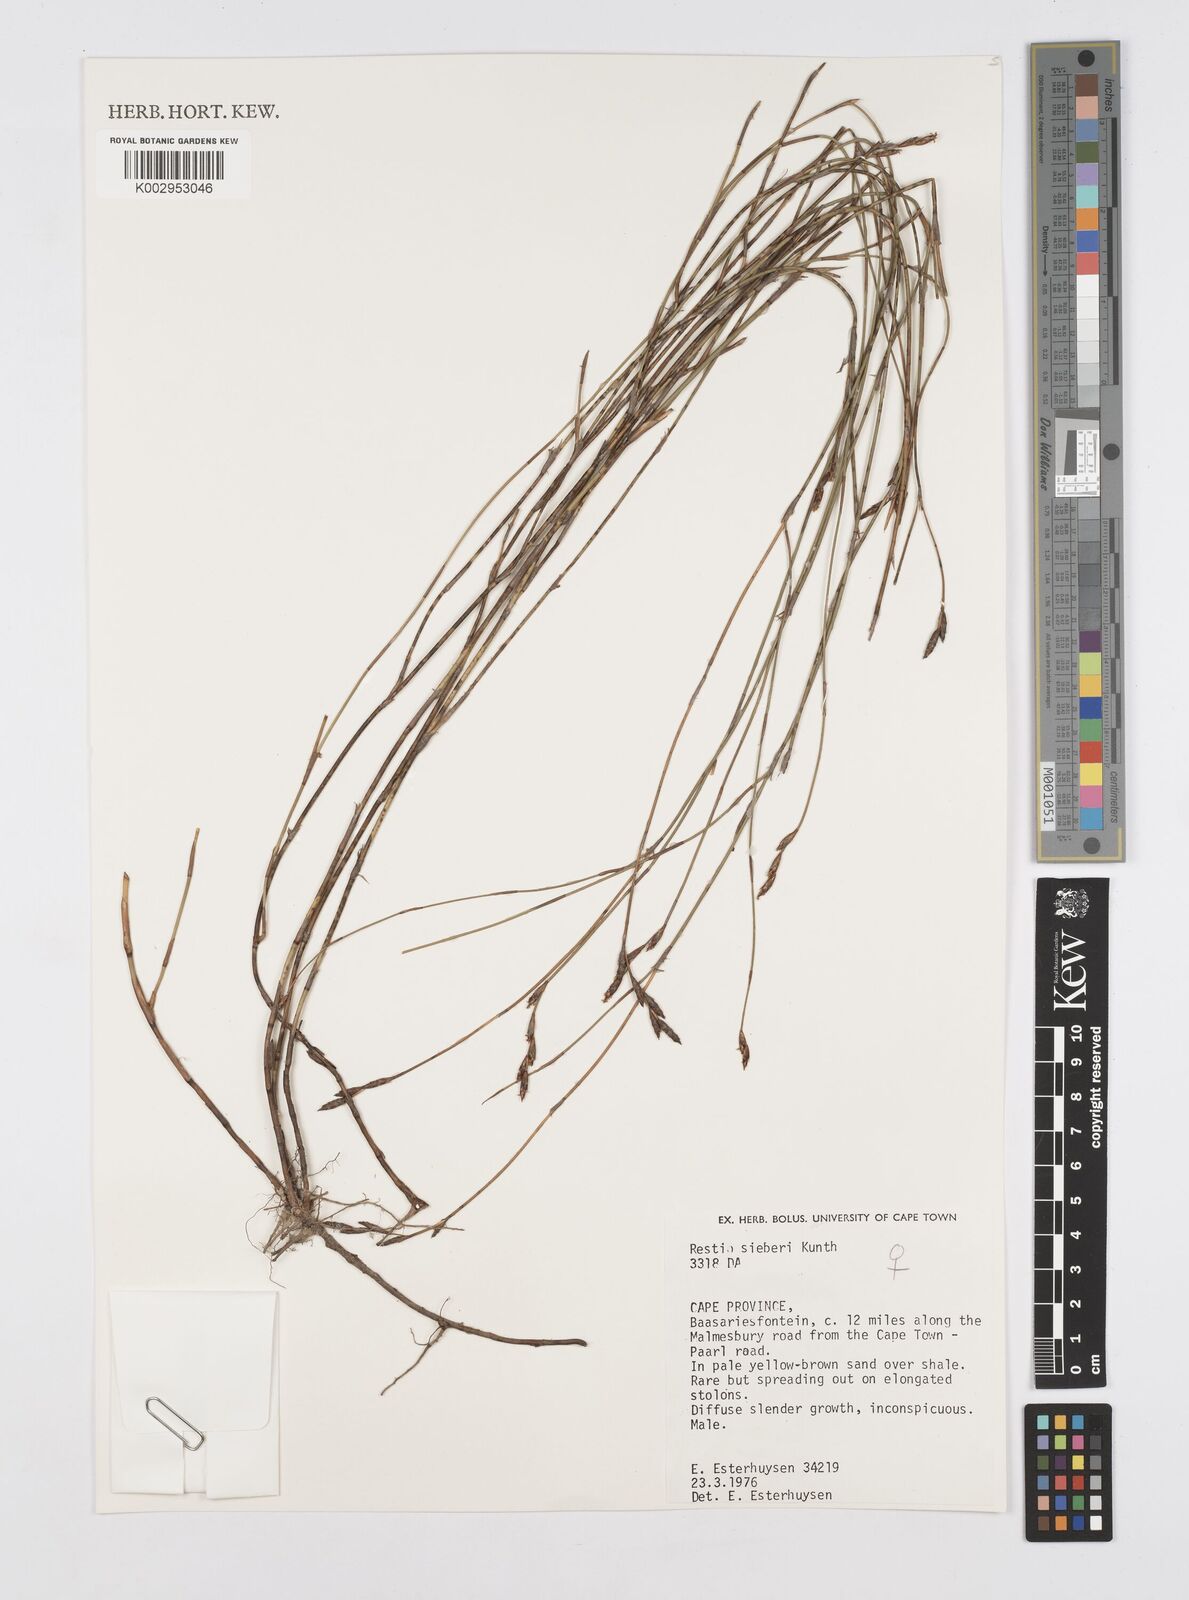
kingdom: Plantae
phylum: Tracheophyta
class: Liliopsida
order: Poales
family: Restionaceae
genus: Restio
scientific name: Restio sieberi
